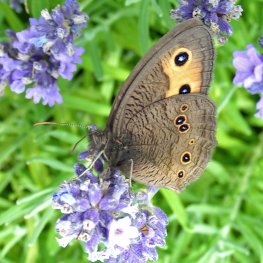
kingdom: Animalia
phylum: Arthropoda
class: Insecta
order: Lepidoptera
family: Nymphalidae
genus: Cercyonis
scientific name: Cercyonis pegala
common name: Common Wood-Nymph
